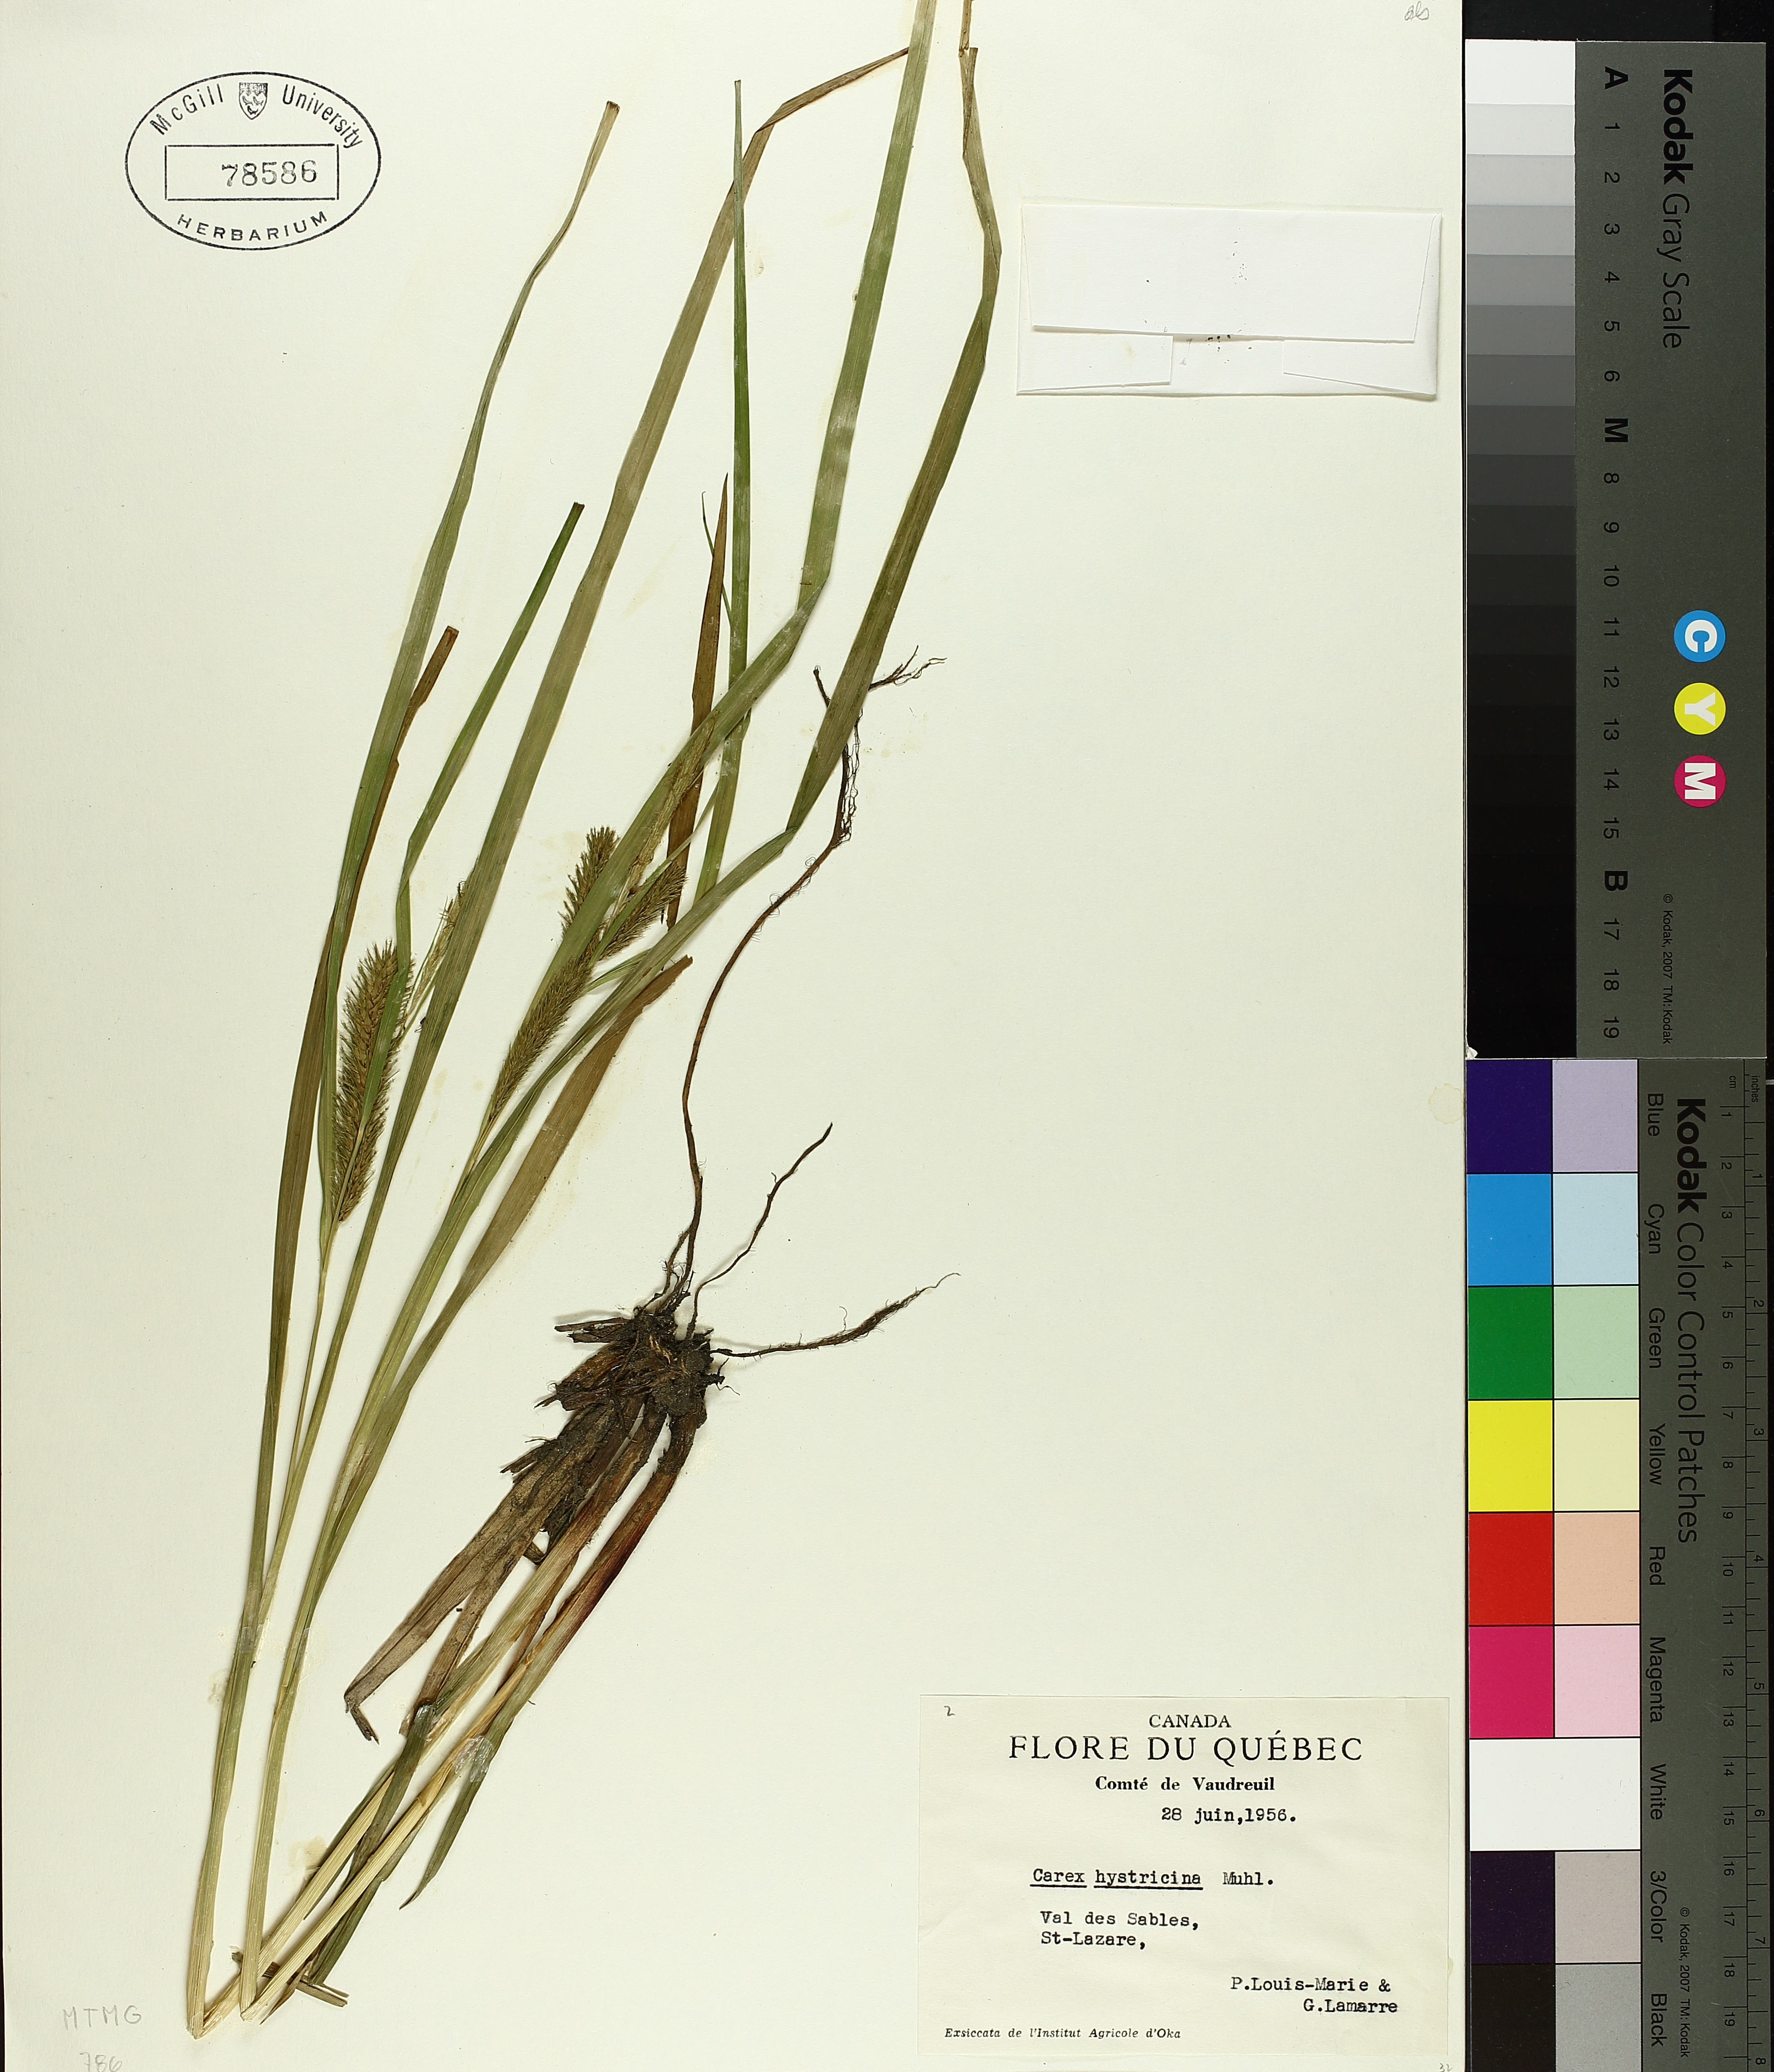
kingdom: Plantae
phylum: Tracheophyta
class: Liliopsida
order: Poales
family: Cyperaceae
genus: Carex
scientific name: Carex hystericina
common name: Bottlebrush sedge
